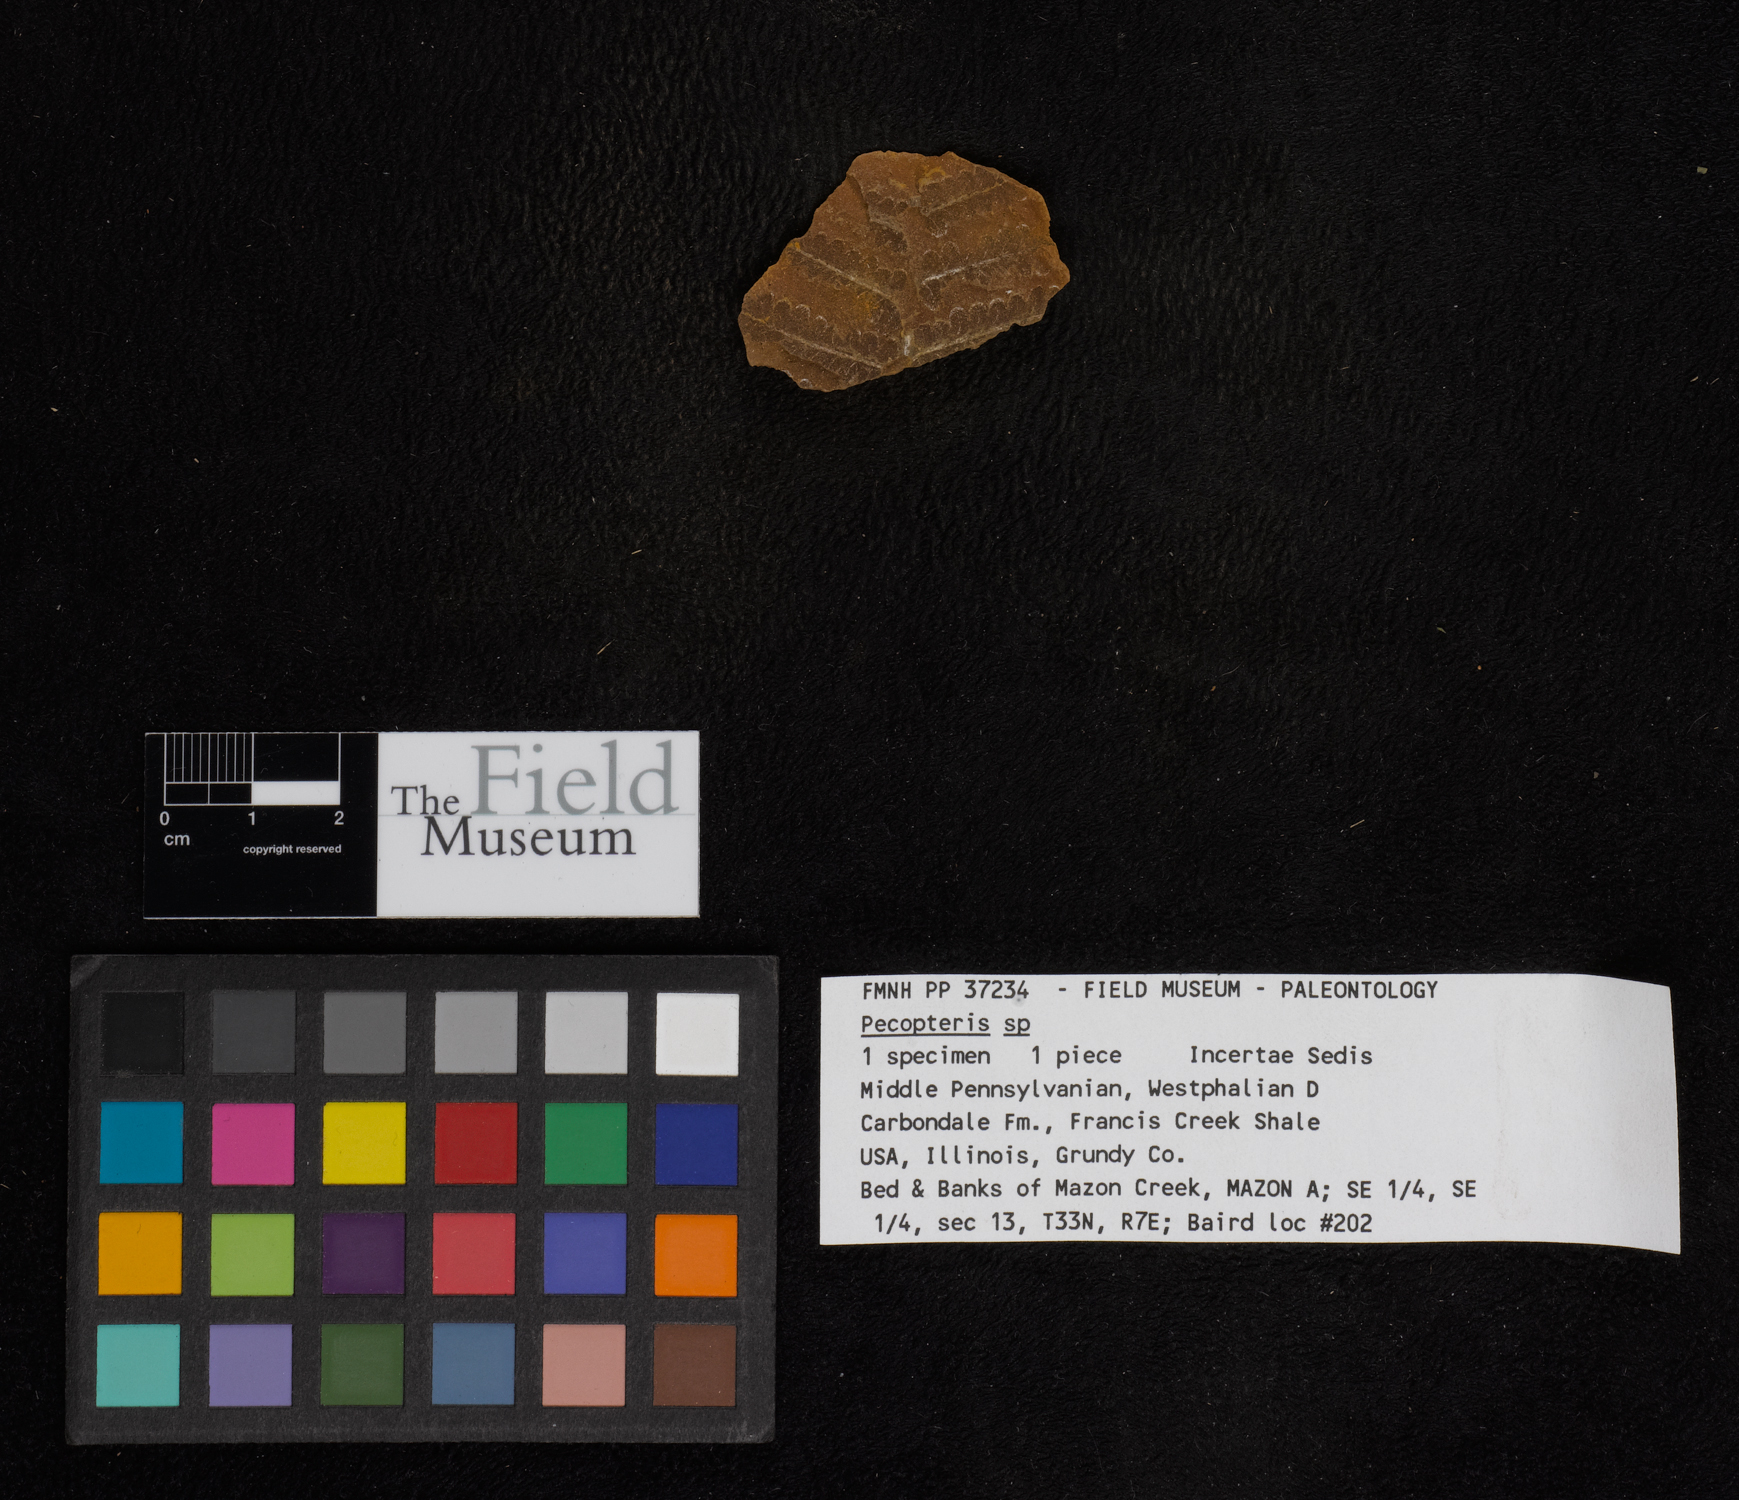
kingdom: Plantae
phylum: Tracheophyta
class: Polypodiopsida
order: Marattiales
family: Asterothecaceae
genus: Pecopteris
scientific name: Pecopteris
